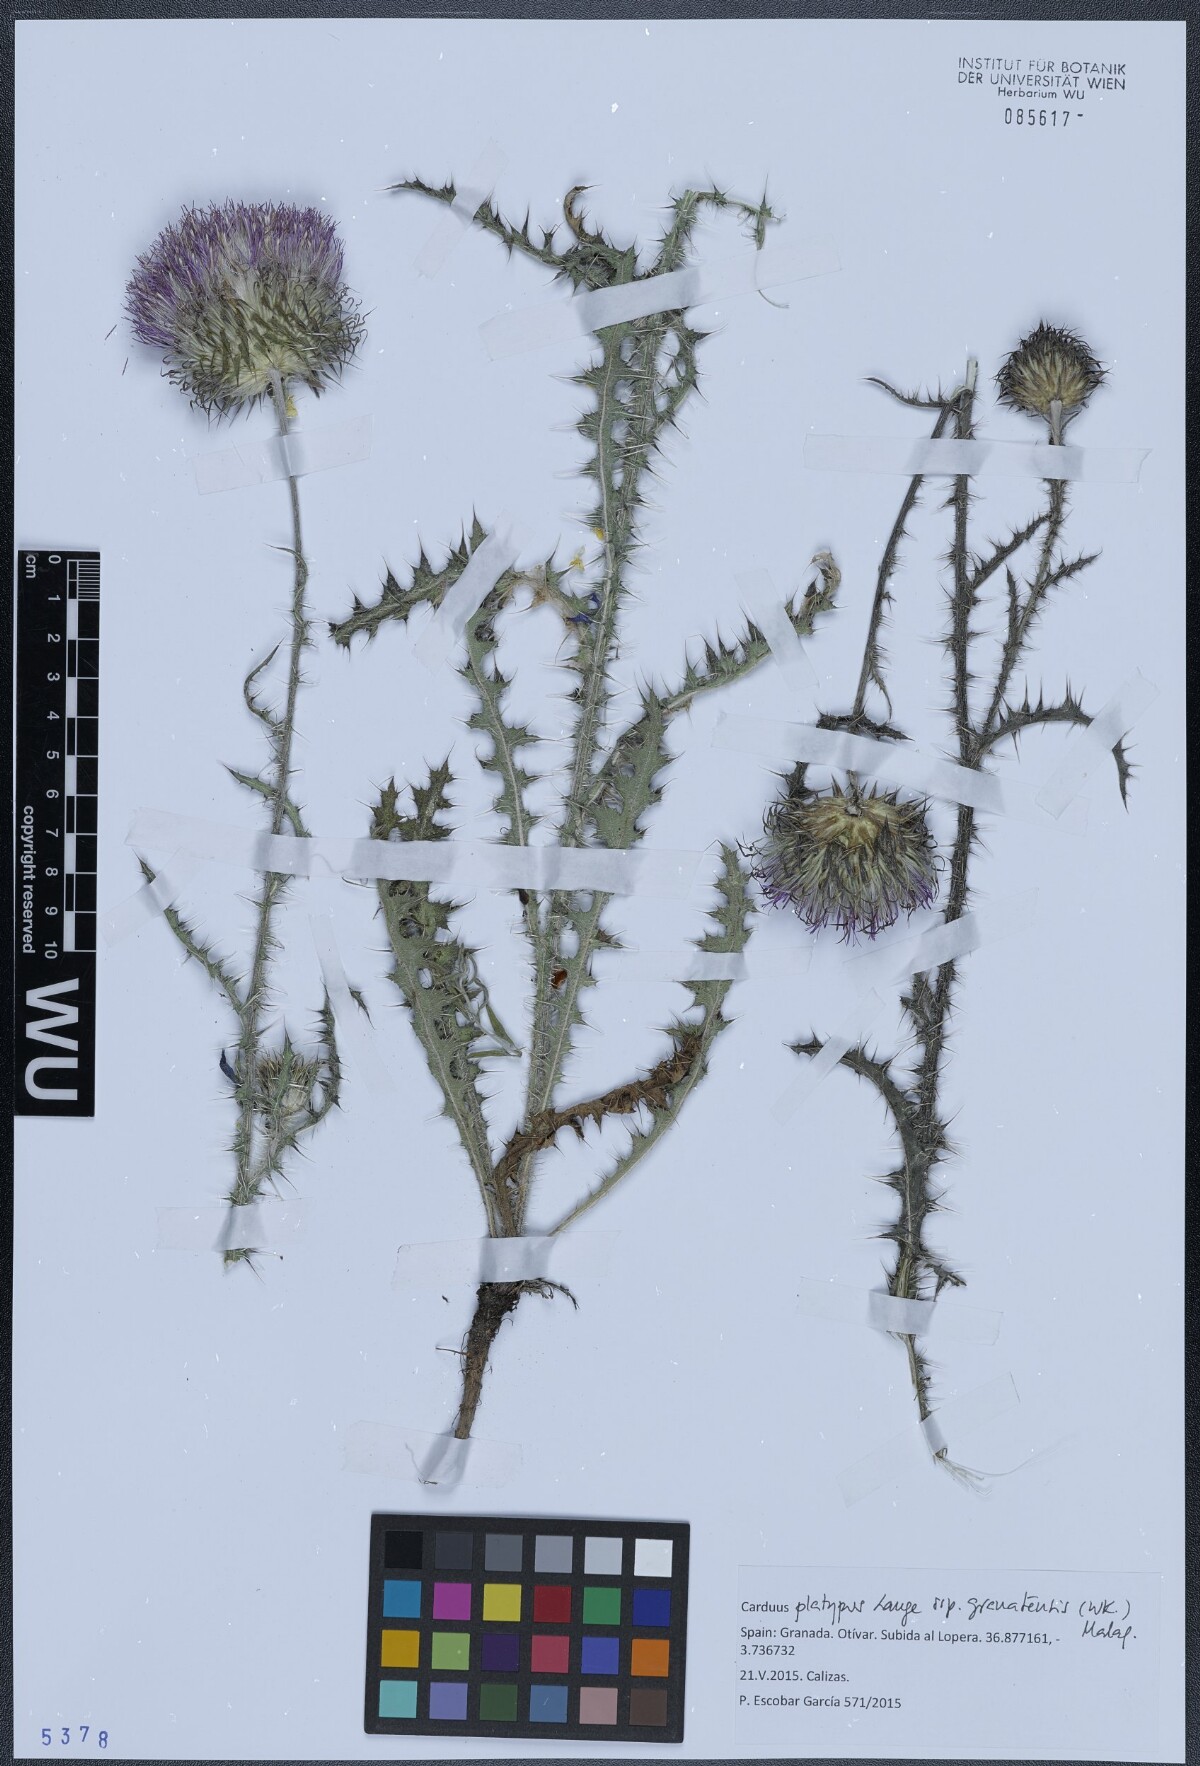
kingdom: Plantae
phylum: Tracheophyta
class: Magnoliopsida
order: Asterales
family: Asteraceae
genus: Carduus
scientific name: Carduus platypus
